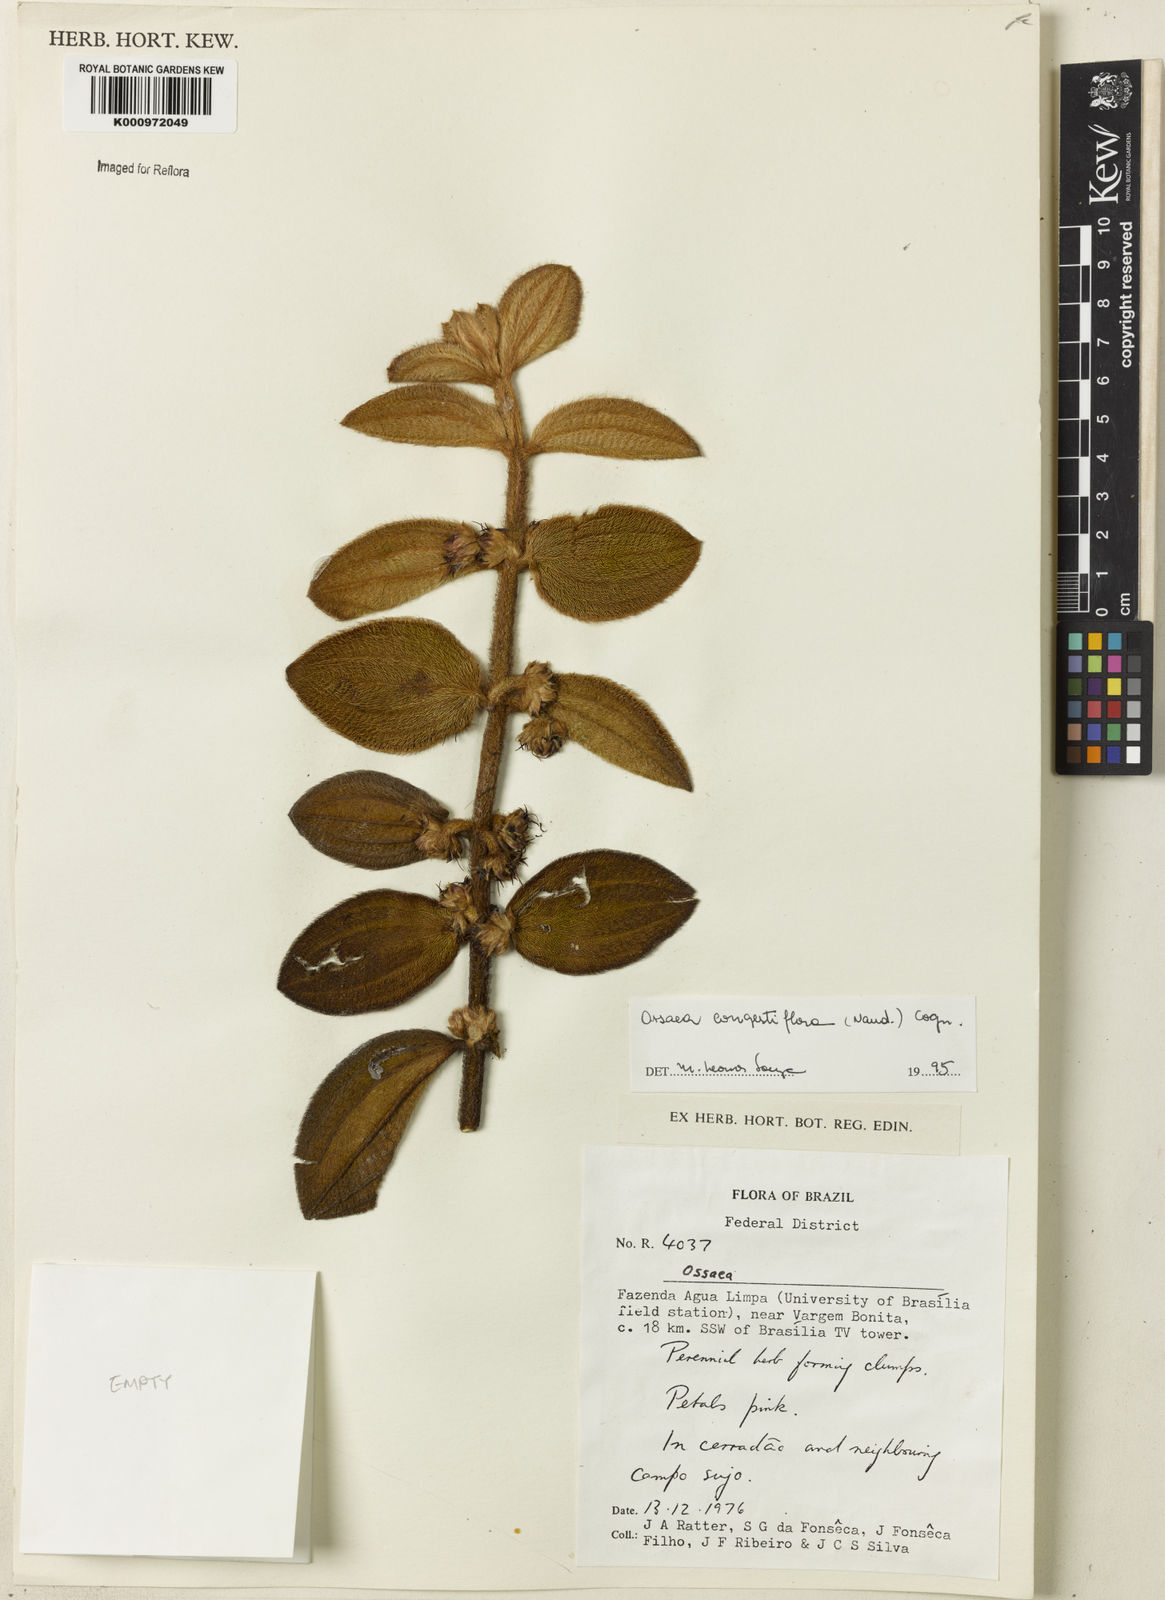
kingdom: Plantae
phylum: Tracheophyta
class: Magnoliopsida
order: Myrtales
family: Melastomataceae
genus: Miconia
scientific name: Miconia leacongestiflora
